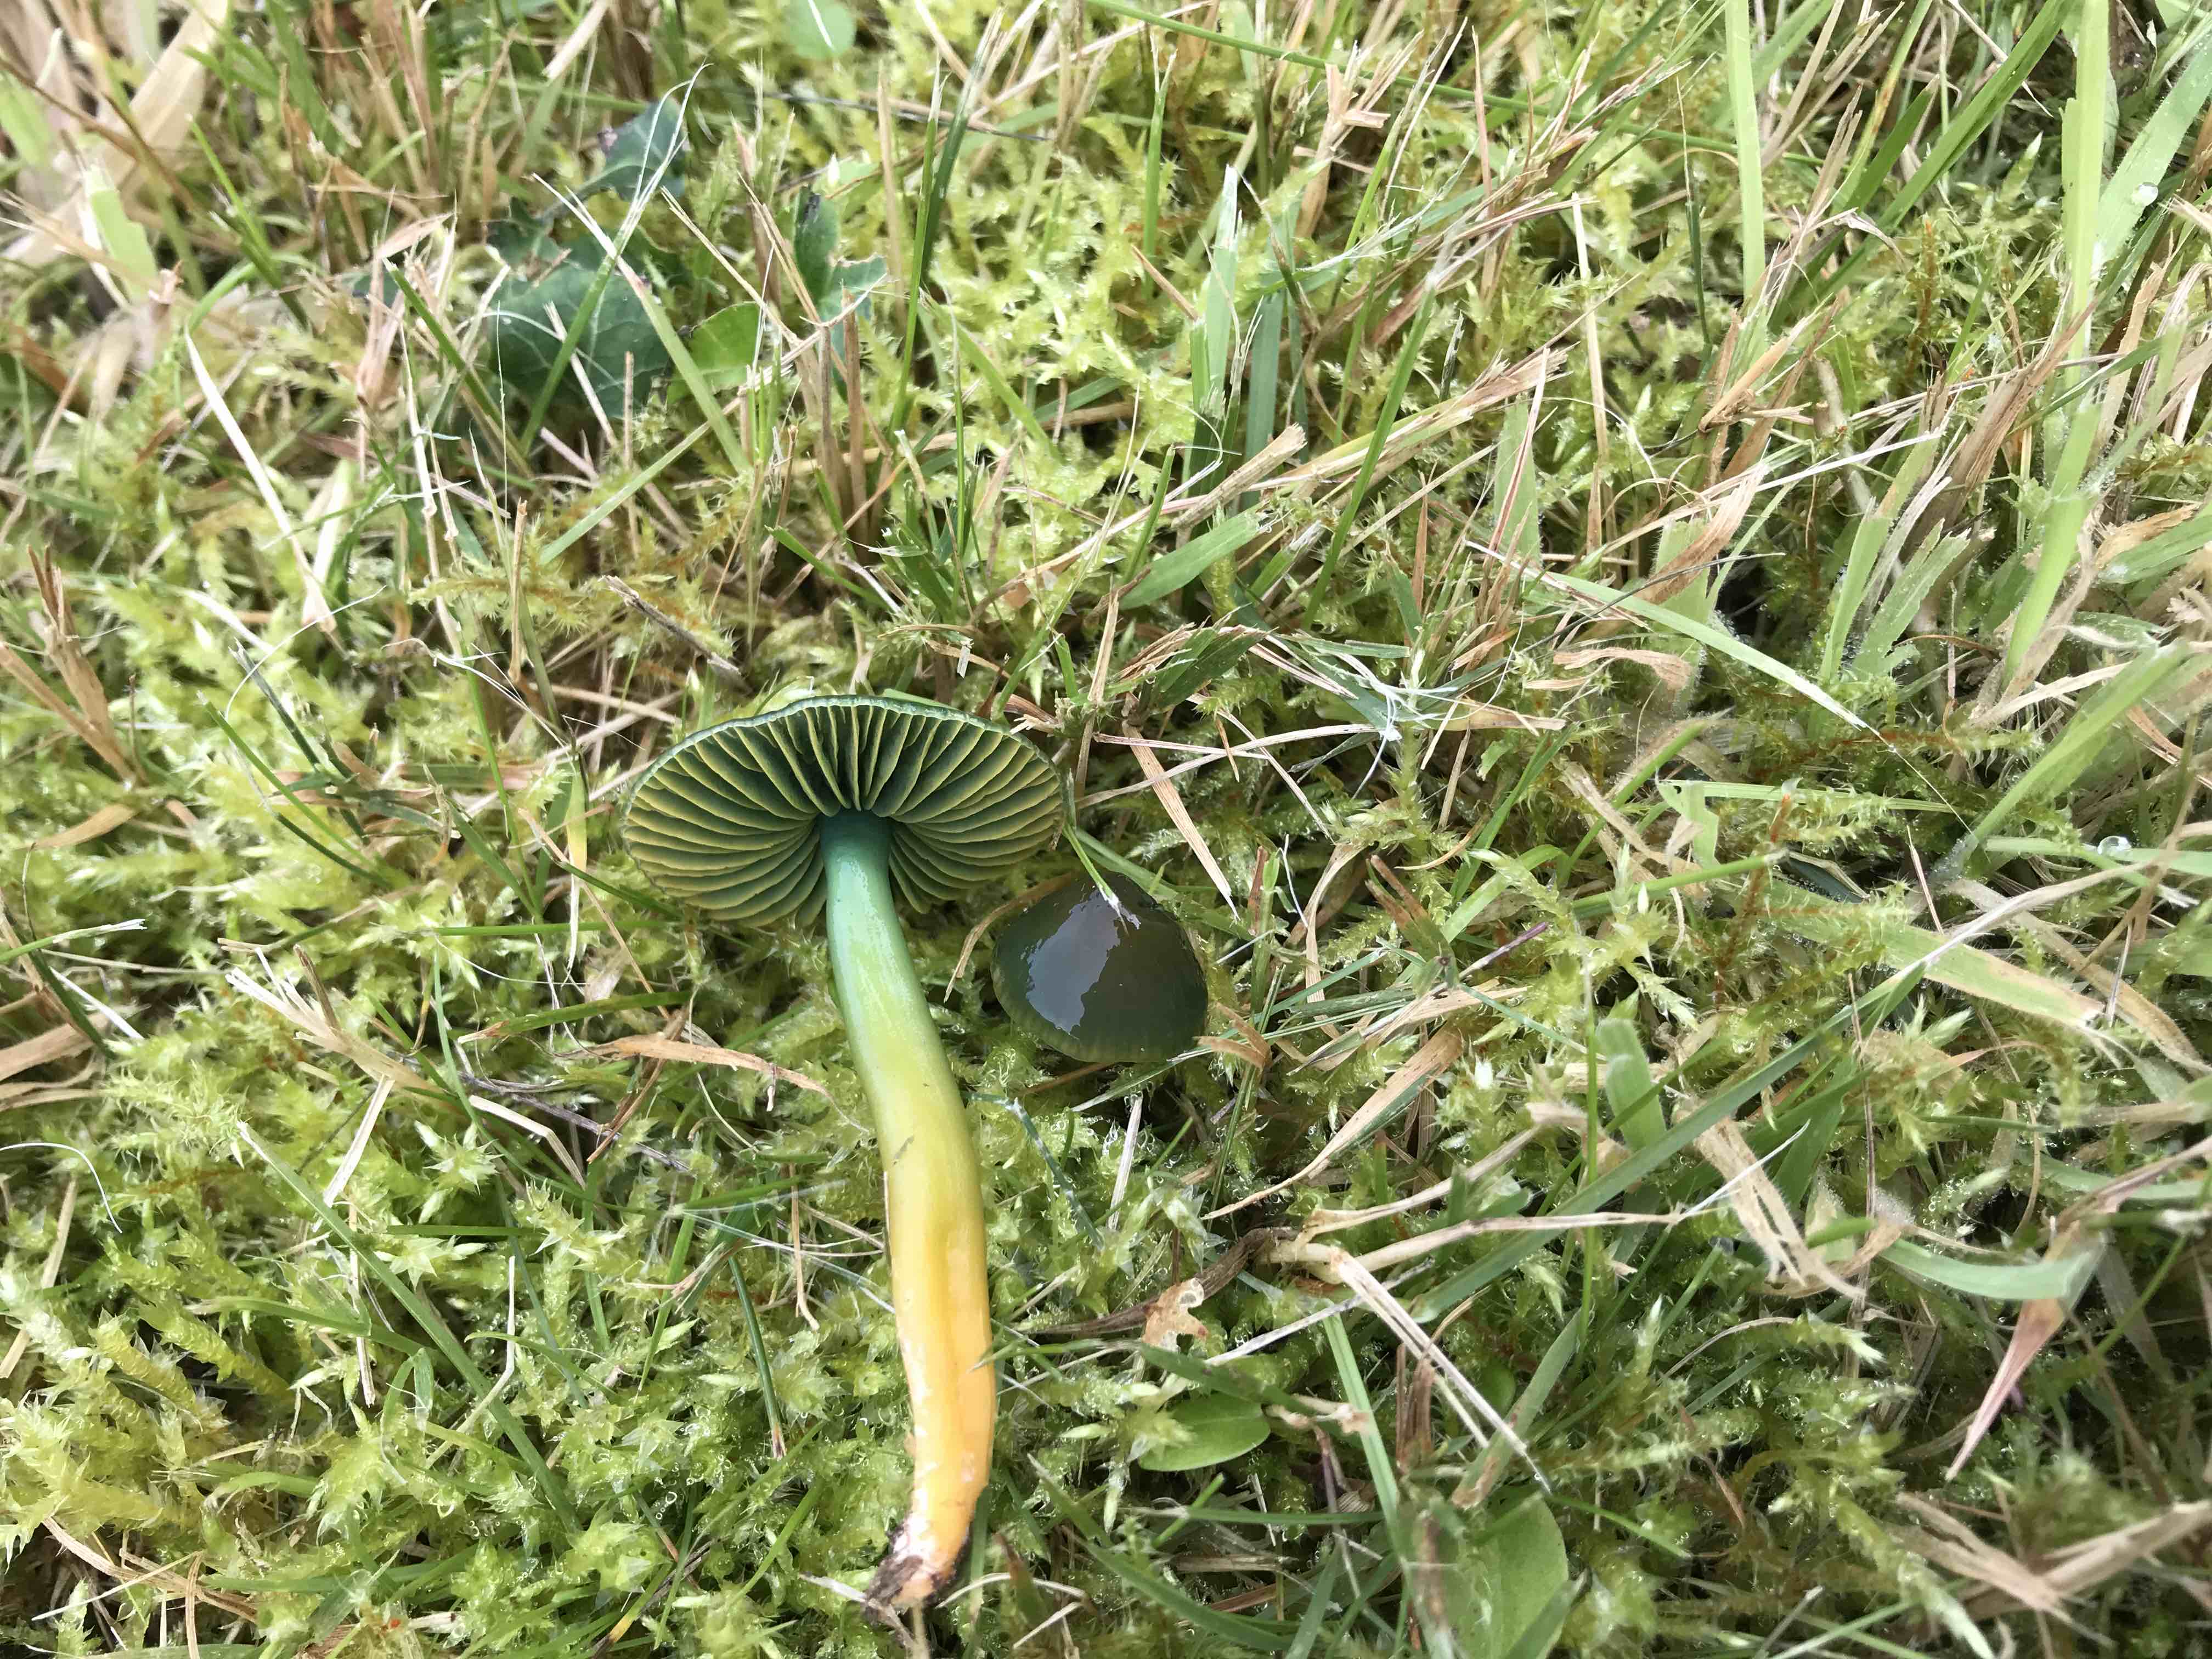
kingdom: Fungi
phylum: Basidiomycota
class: Agaricomycetes
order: Agaricales
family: Hygrophoraceae
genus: Gliophorus
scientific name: Gliophorus psittacinus
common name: papegøje-vokshat
